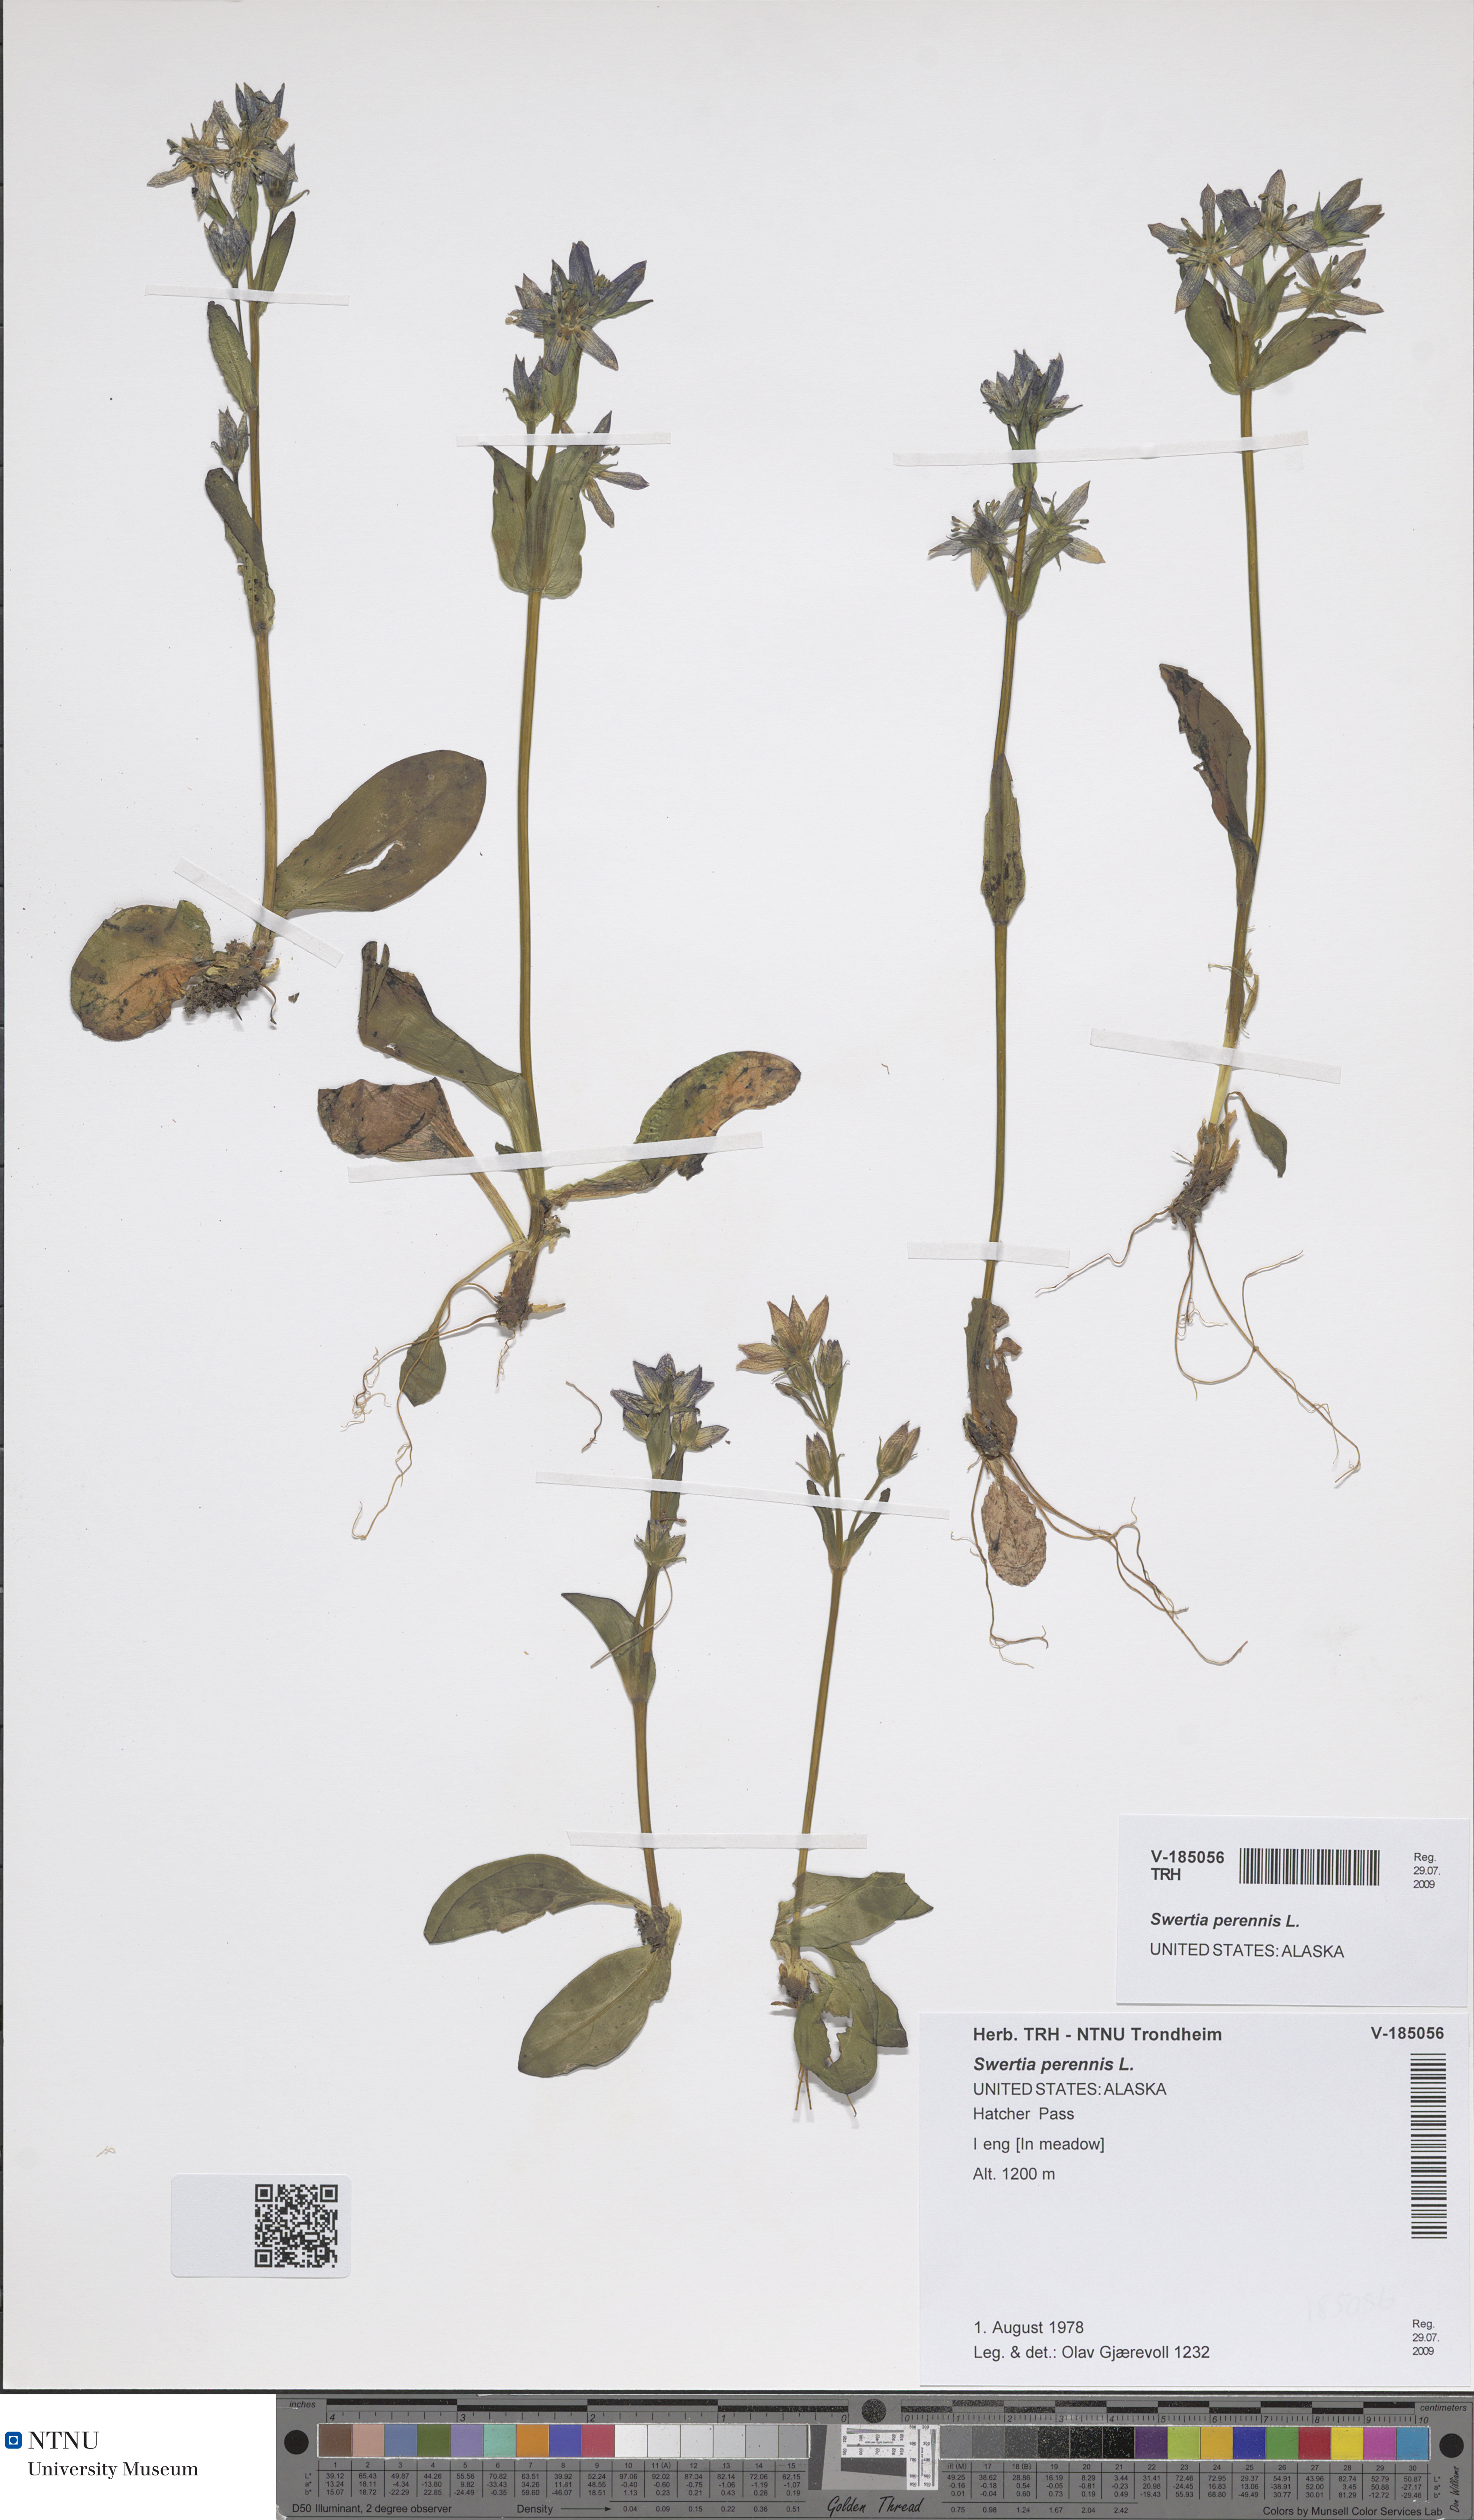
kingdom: Plantae
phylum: Tracheophyta
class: Magnoliopsida
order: Gentianales
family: Gentianaceae
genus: Swertia
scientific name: Swertia perennis
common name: Alpine bog swertia
